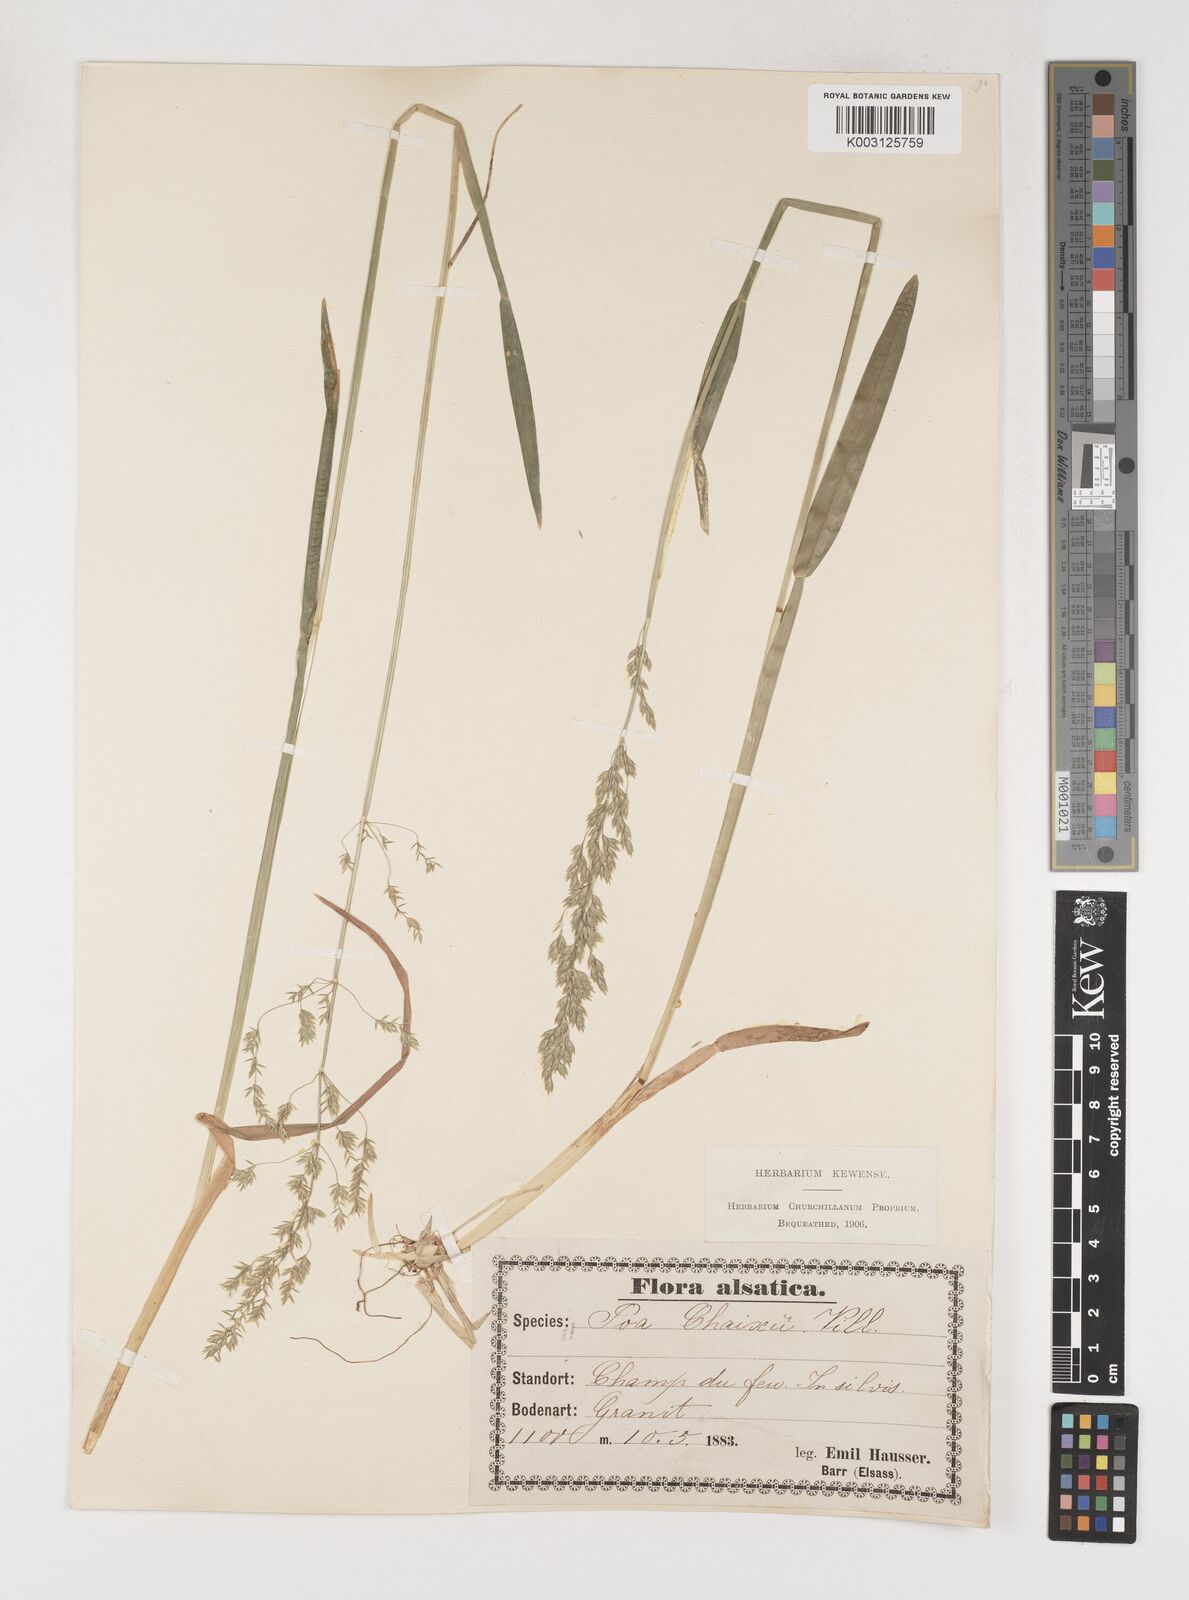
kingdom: Plantae
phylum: Tracheophyta
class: Liliopsida
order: Poales
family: Poaceae
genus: Poa
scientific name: Poa chaixii
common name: Broad-leaved meadow-grass
